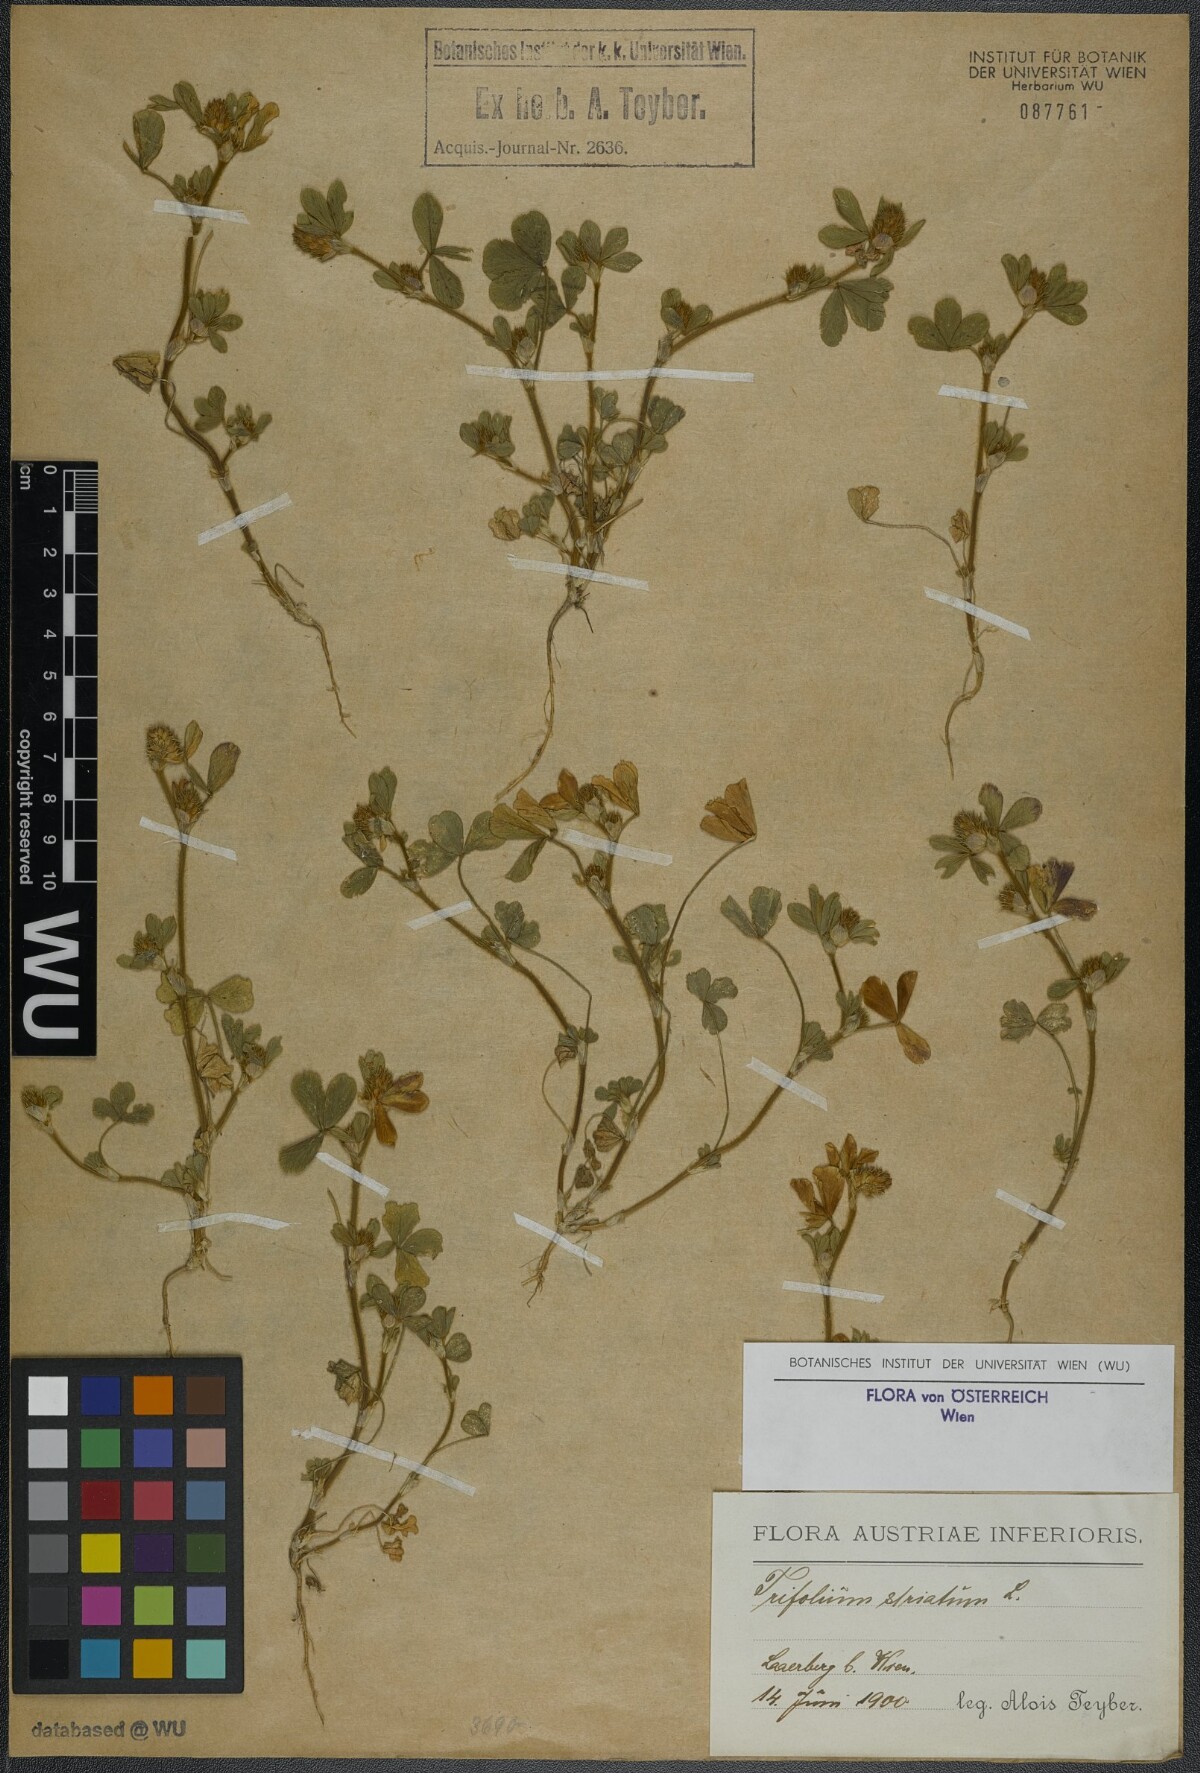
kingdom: Plantae
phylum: Tracheophyta
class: Magnoliopsida
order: Fabales
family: Fabaceae
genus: Trifolium
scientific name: Trifolium striatum
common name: Knotted clover
